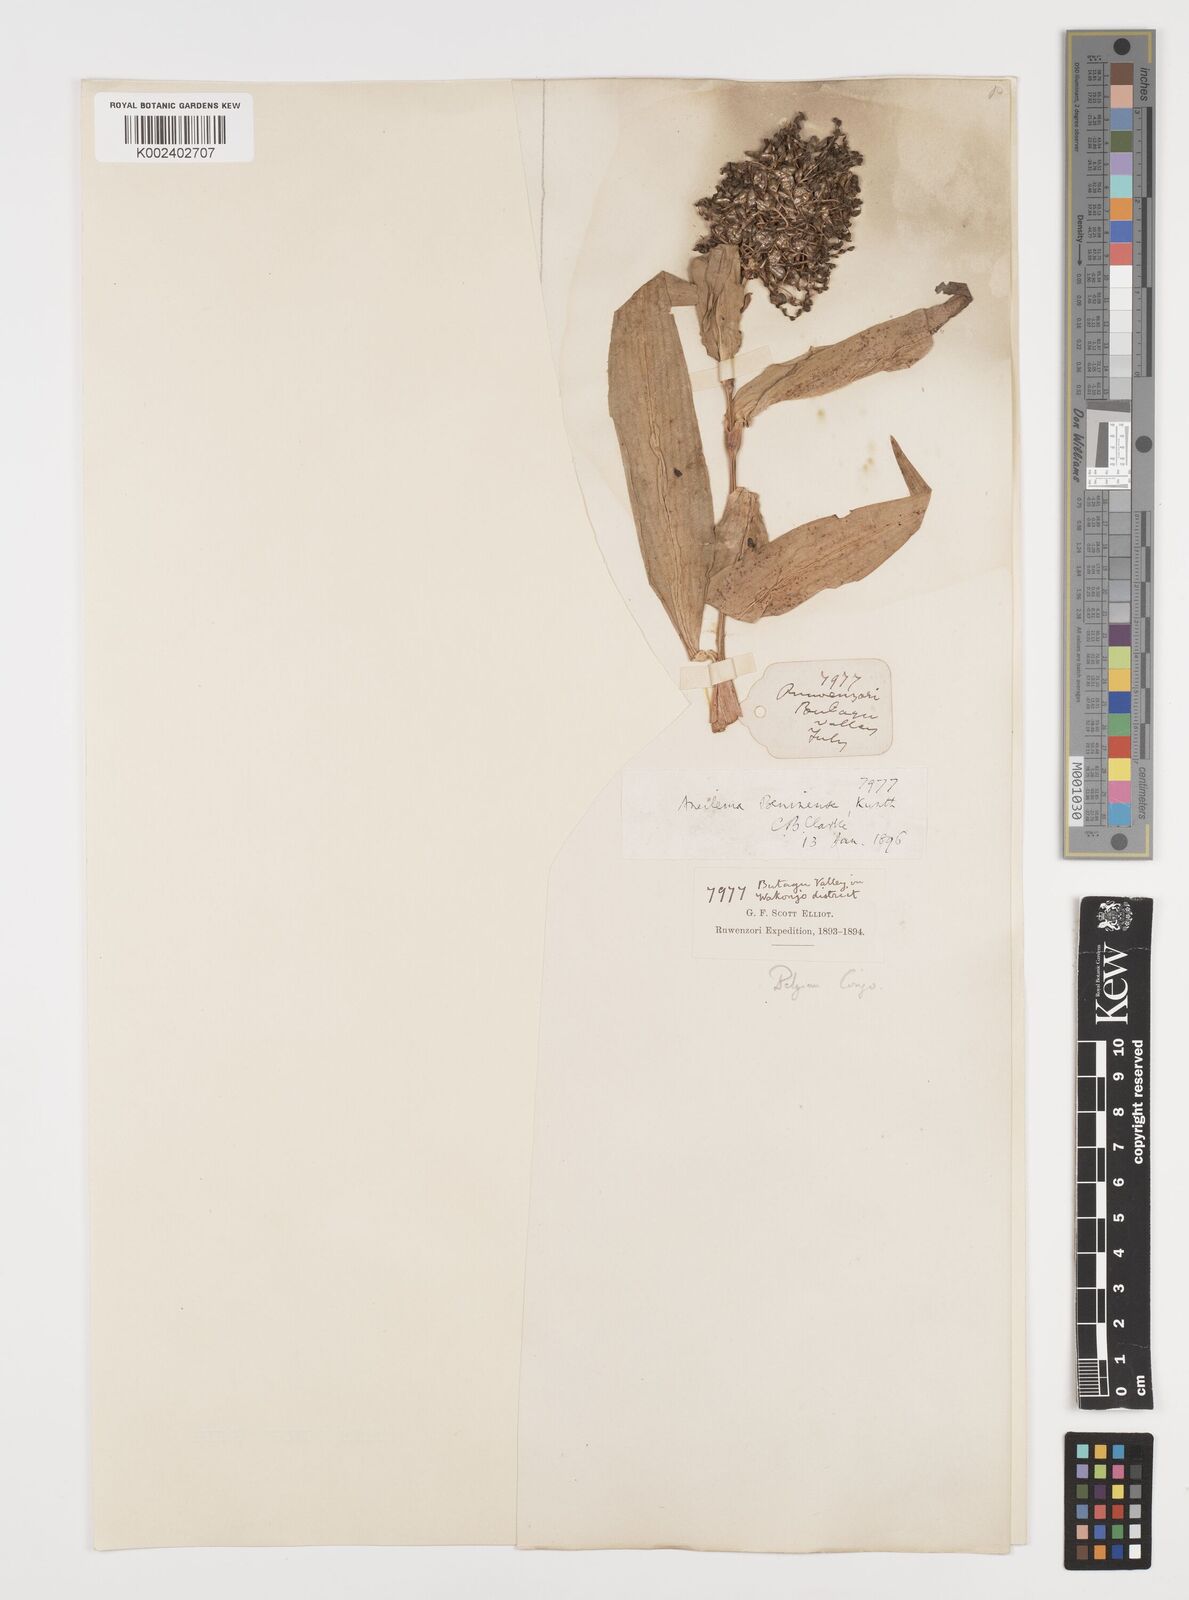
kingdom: Plantae
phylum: Tracheophyta
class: Liliopsida
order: Commelinales
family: Commelinaceae
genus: Aneilema
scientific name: Aneilema beniniense
